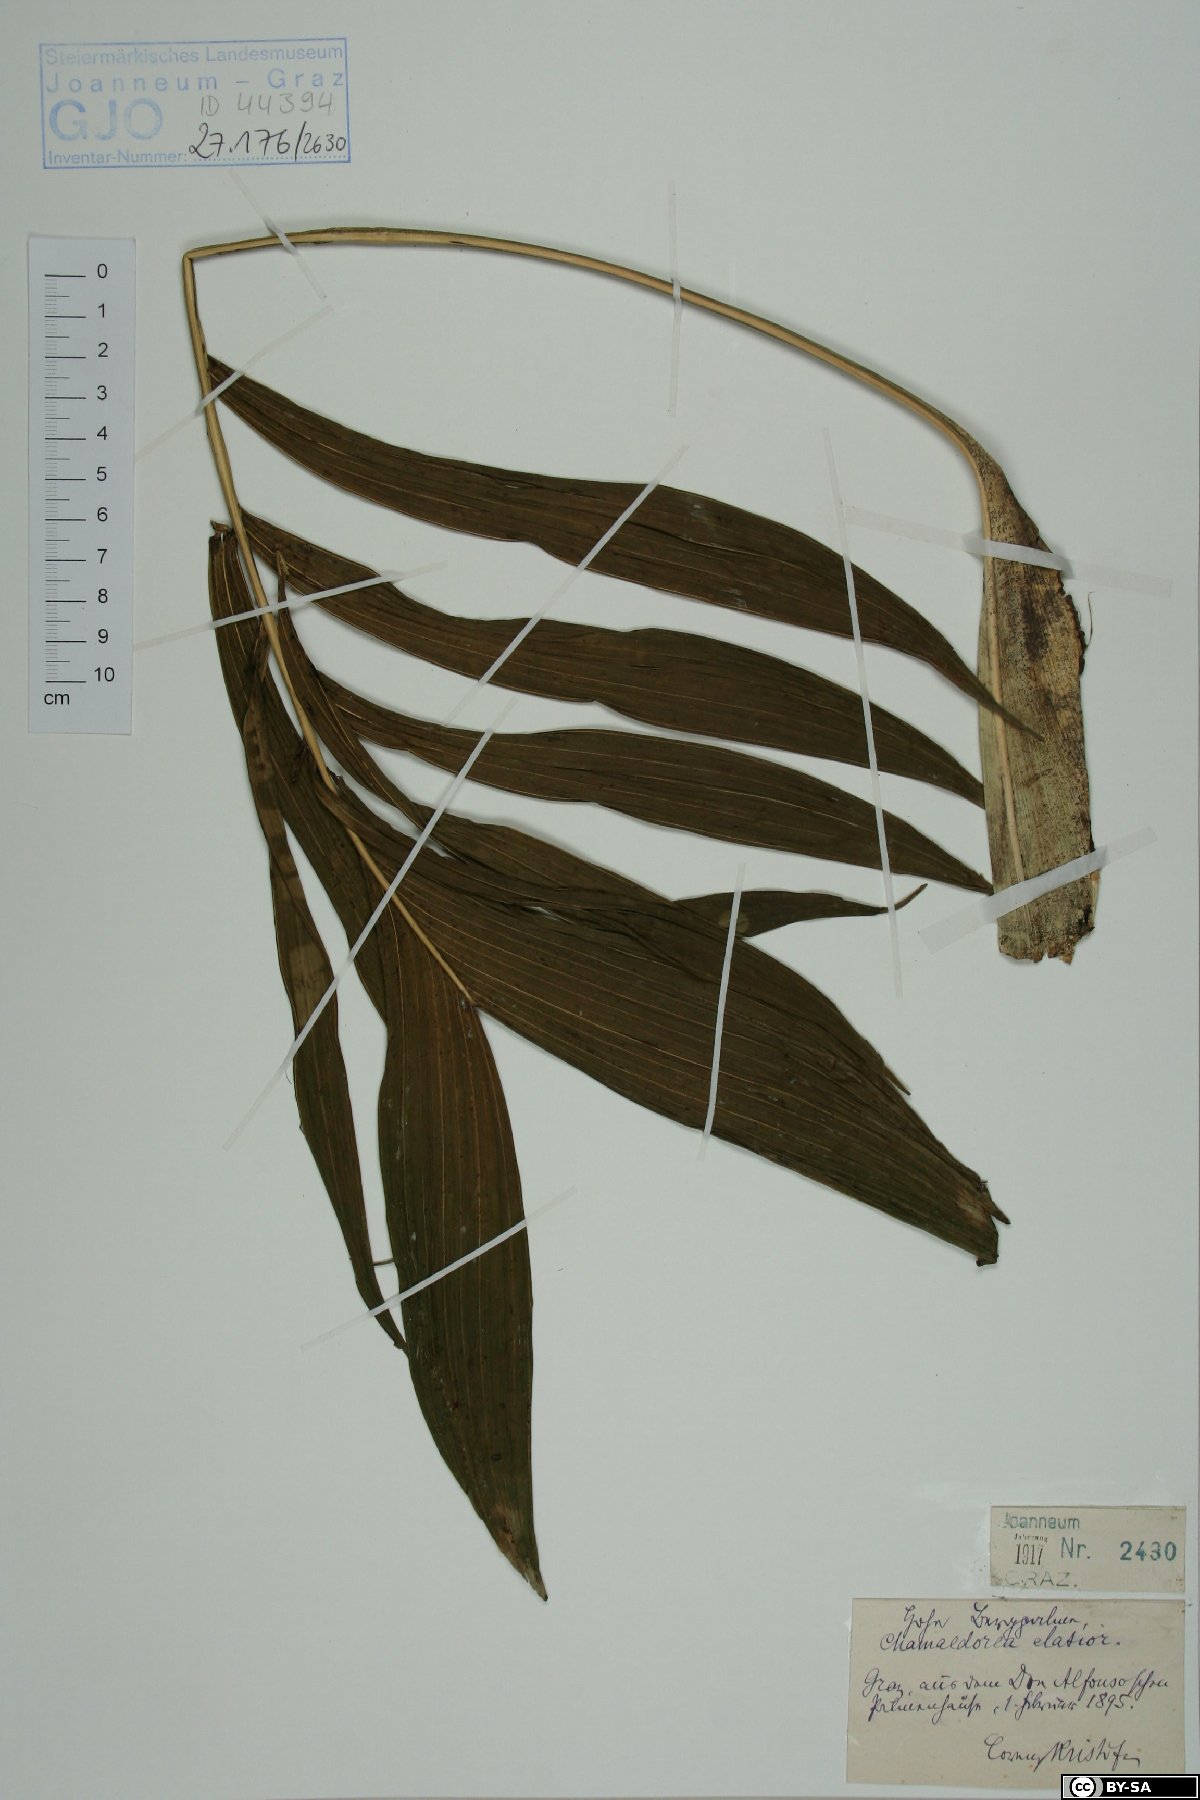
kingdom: Plantae
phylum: Tracheophyta
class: Liliopsida
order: Arecales
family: Arecaceae
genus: Chamaedorea
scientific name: Chamaedorea elatior
